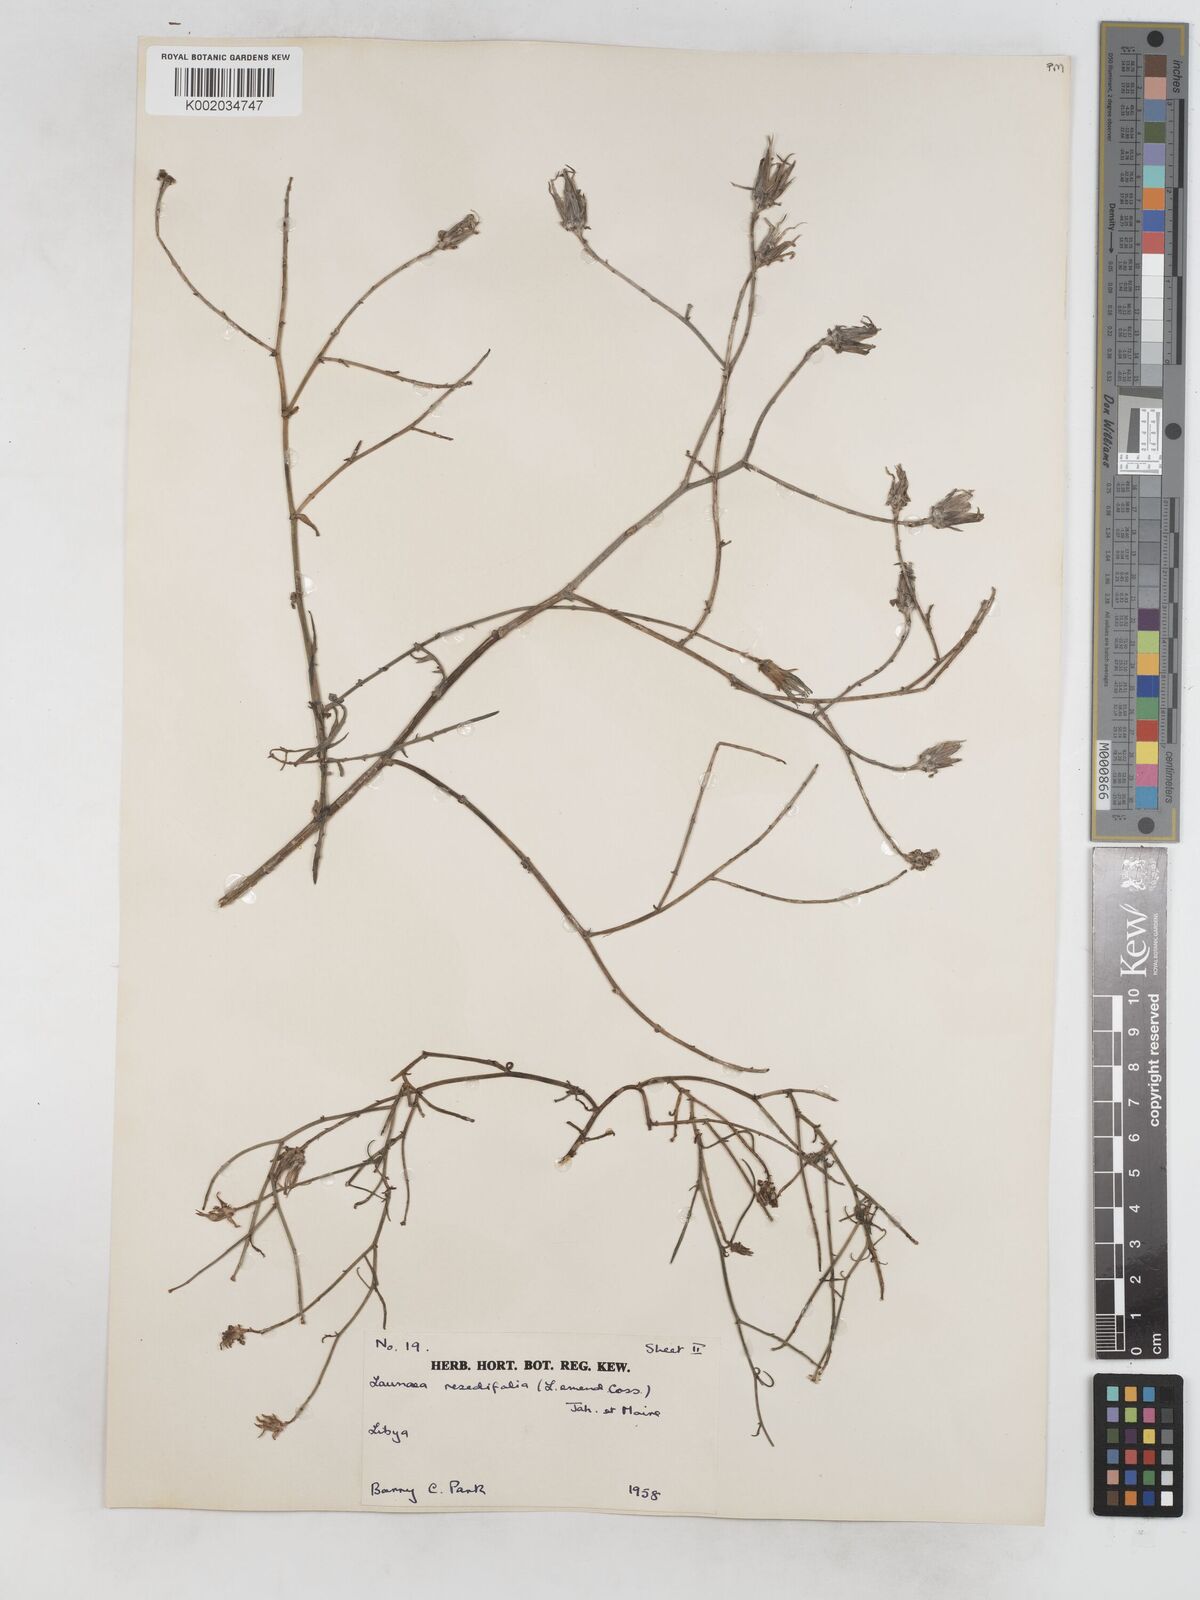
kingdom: Plantae
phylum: Tracheophyta
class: Magnoliopsida
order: Asterales
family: Asteraceae
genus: Launaea
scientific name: Launaea fragilis
